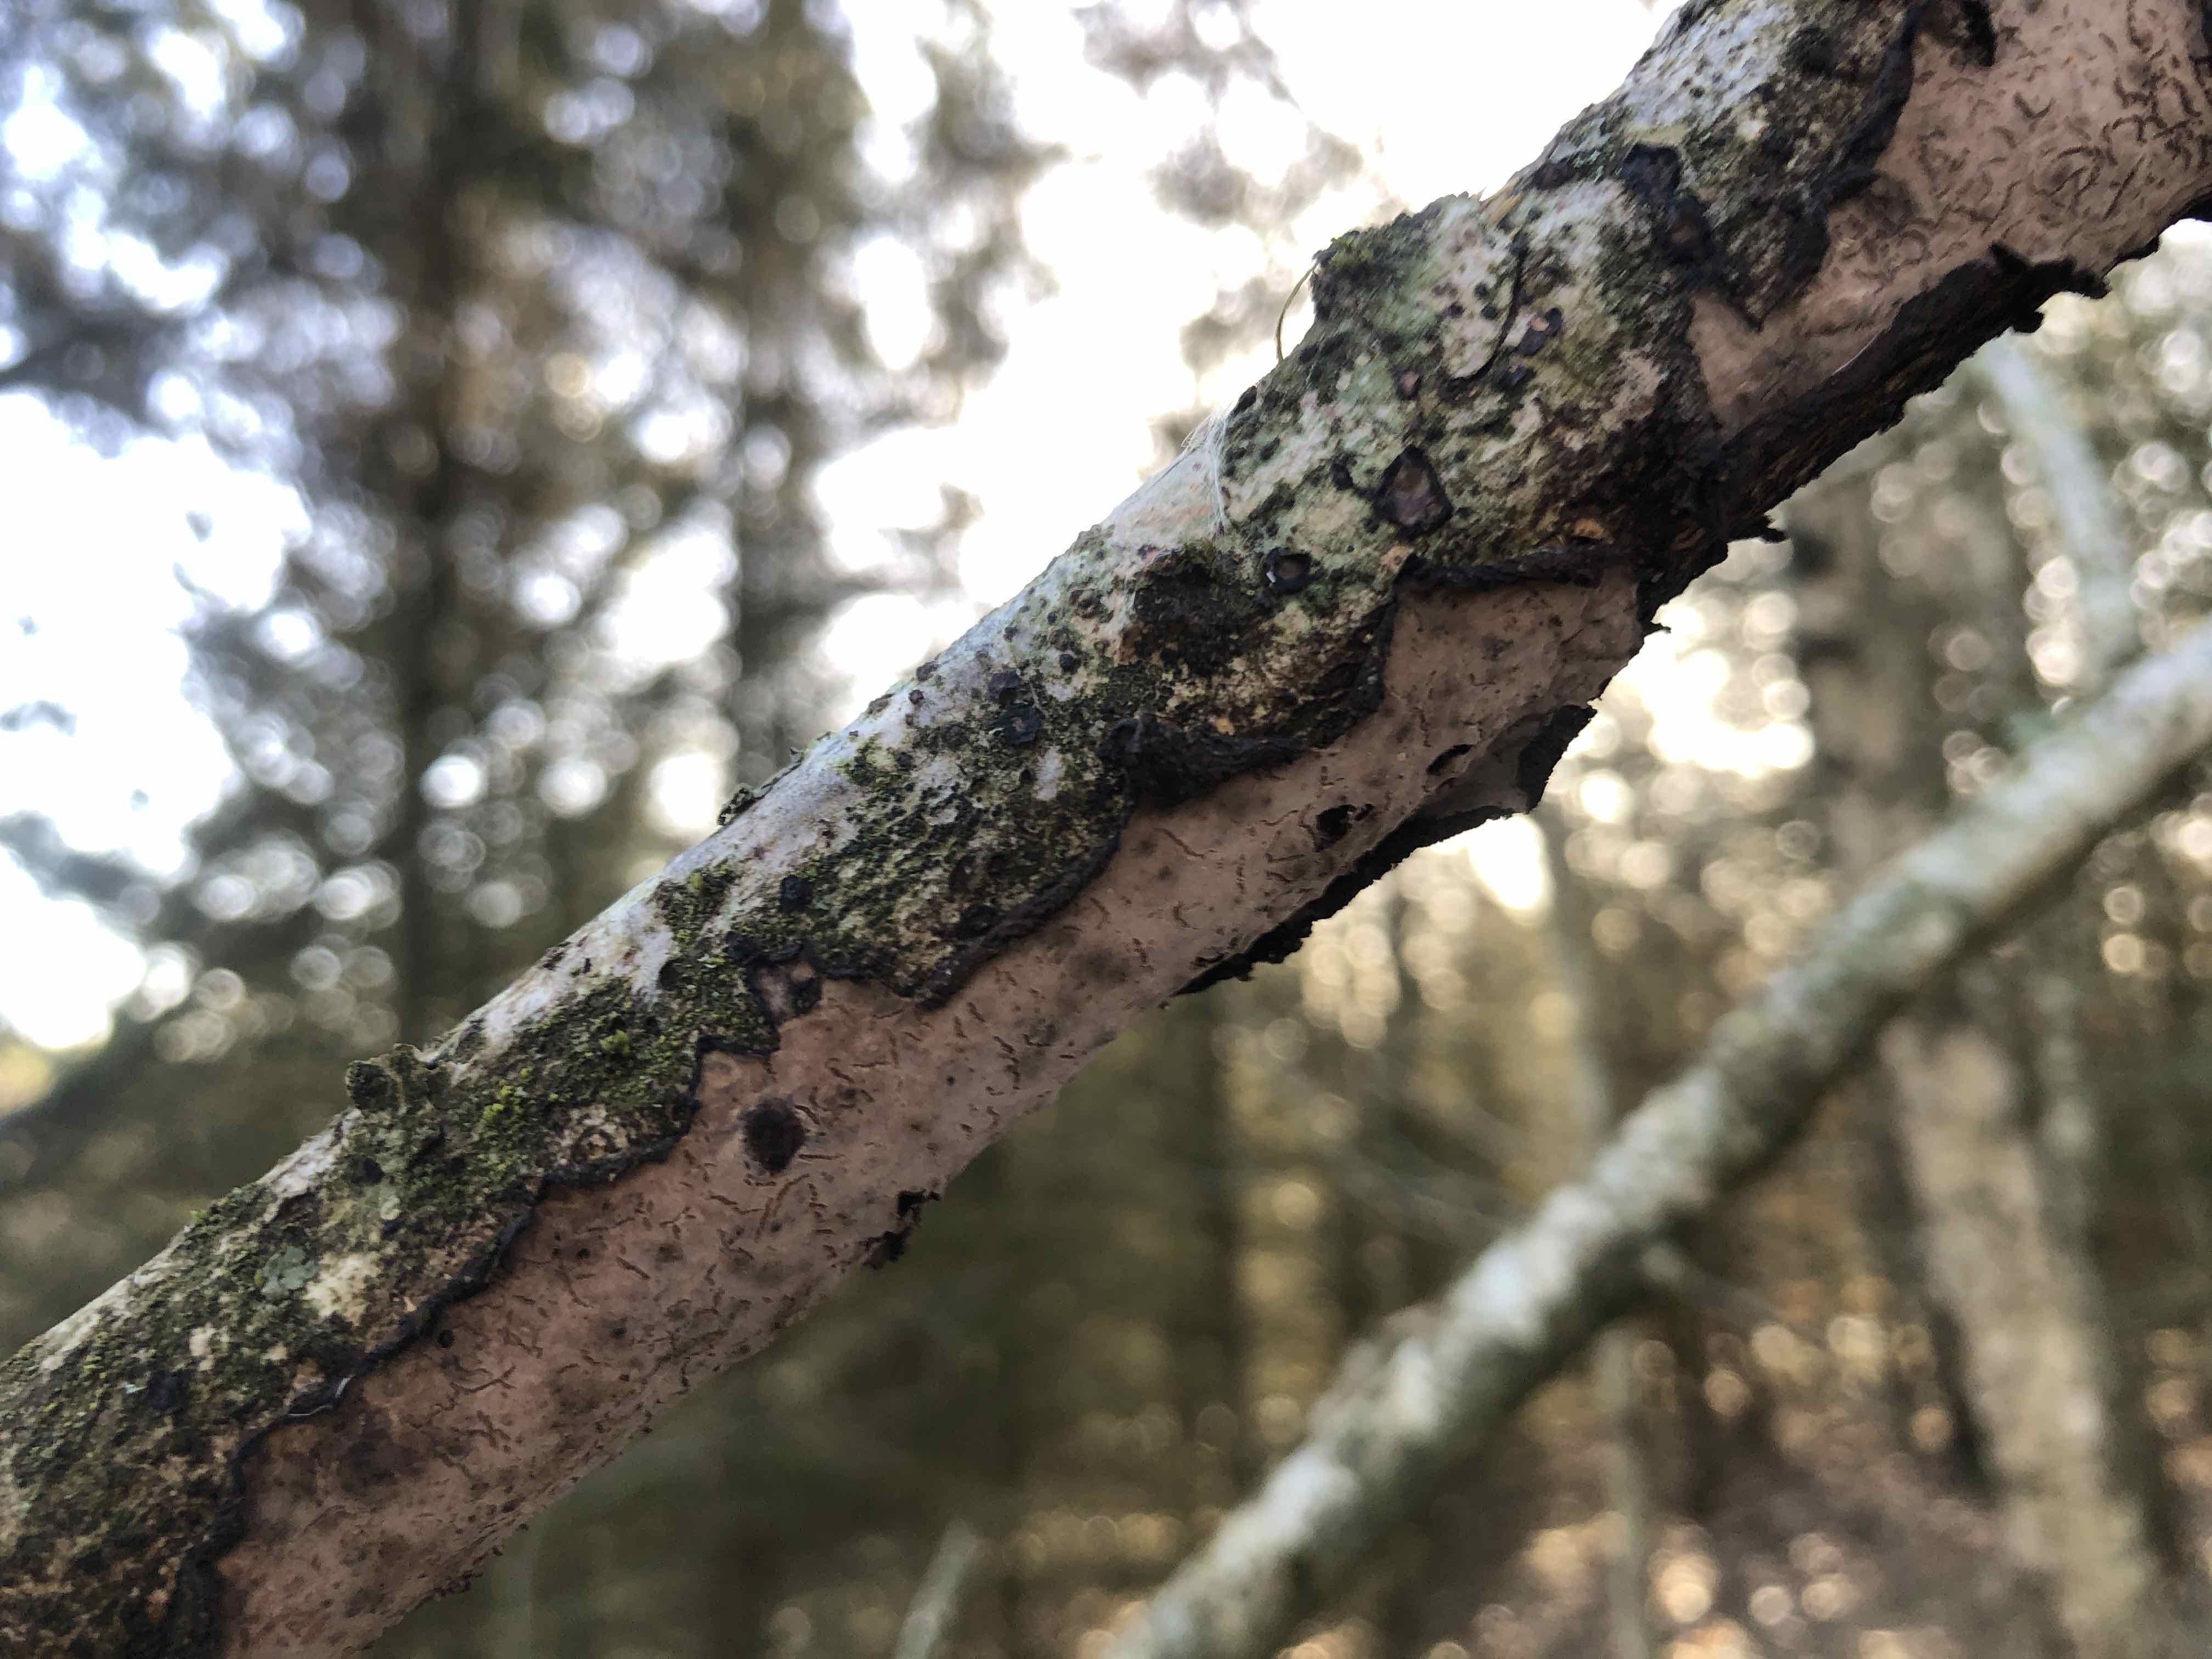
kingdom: Fungi
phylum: Basidiomycota
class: Agaricomycetes
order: Russulales
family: Peniophoraceae
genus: Peniophora
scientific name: Peniophora quercina
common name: ege-voksskind
